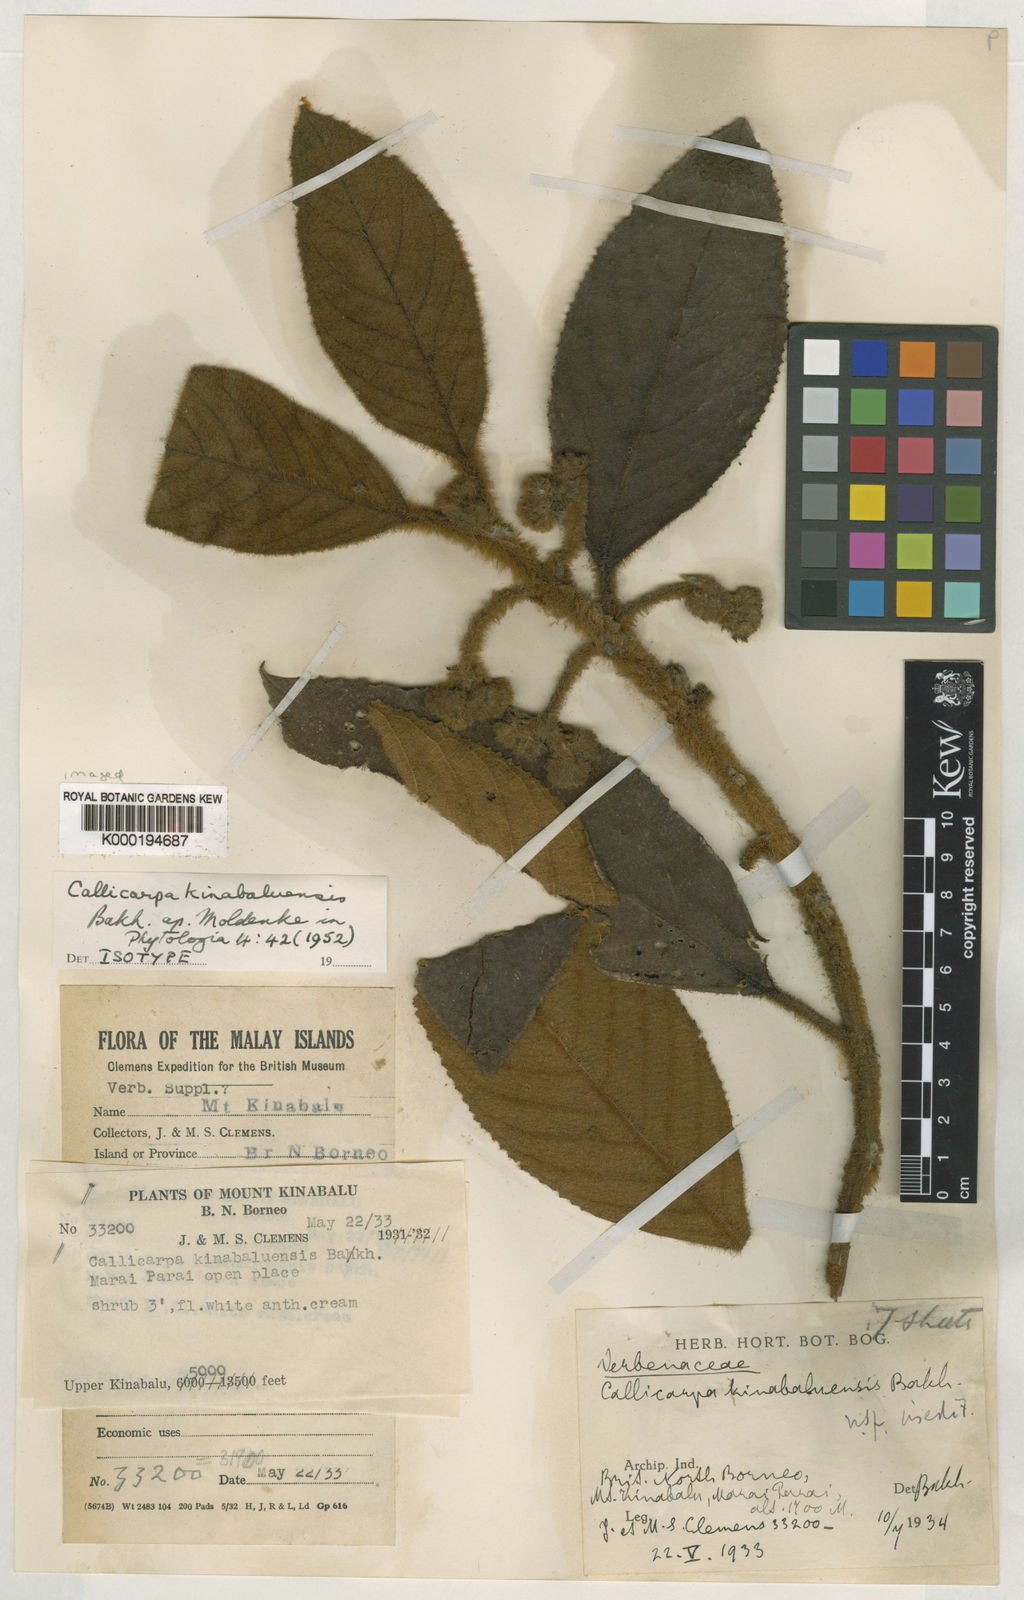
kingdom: Plantae
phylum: Tracheophyta
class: Magnoliopsida
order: Lamiales
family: Lamiaceae
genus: Callicarpa
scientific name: Callicarpa
